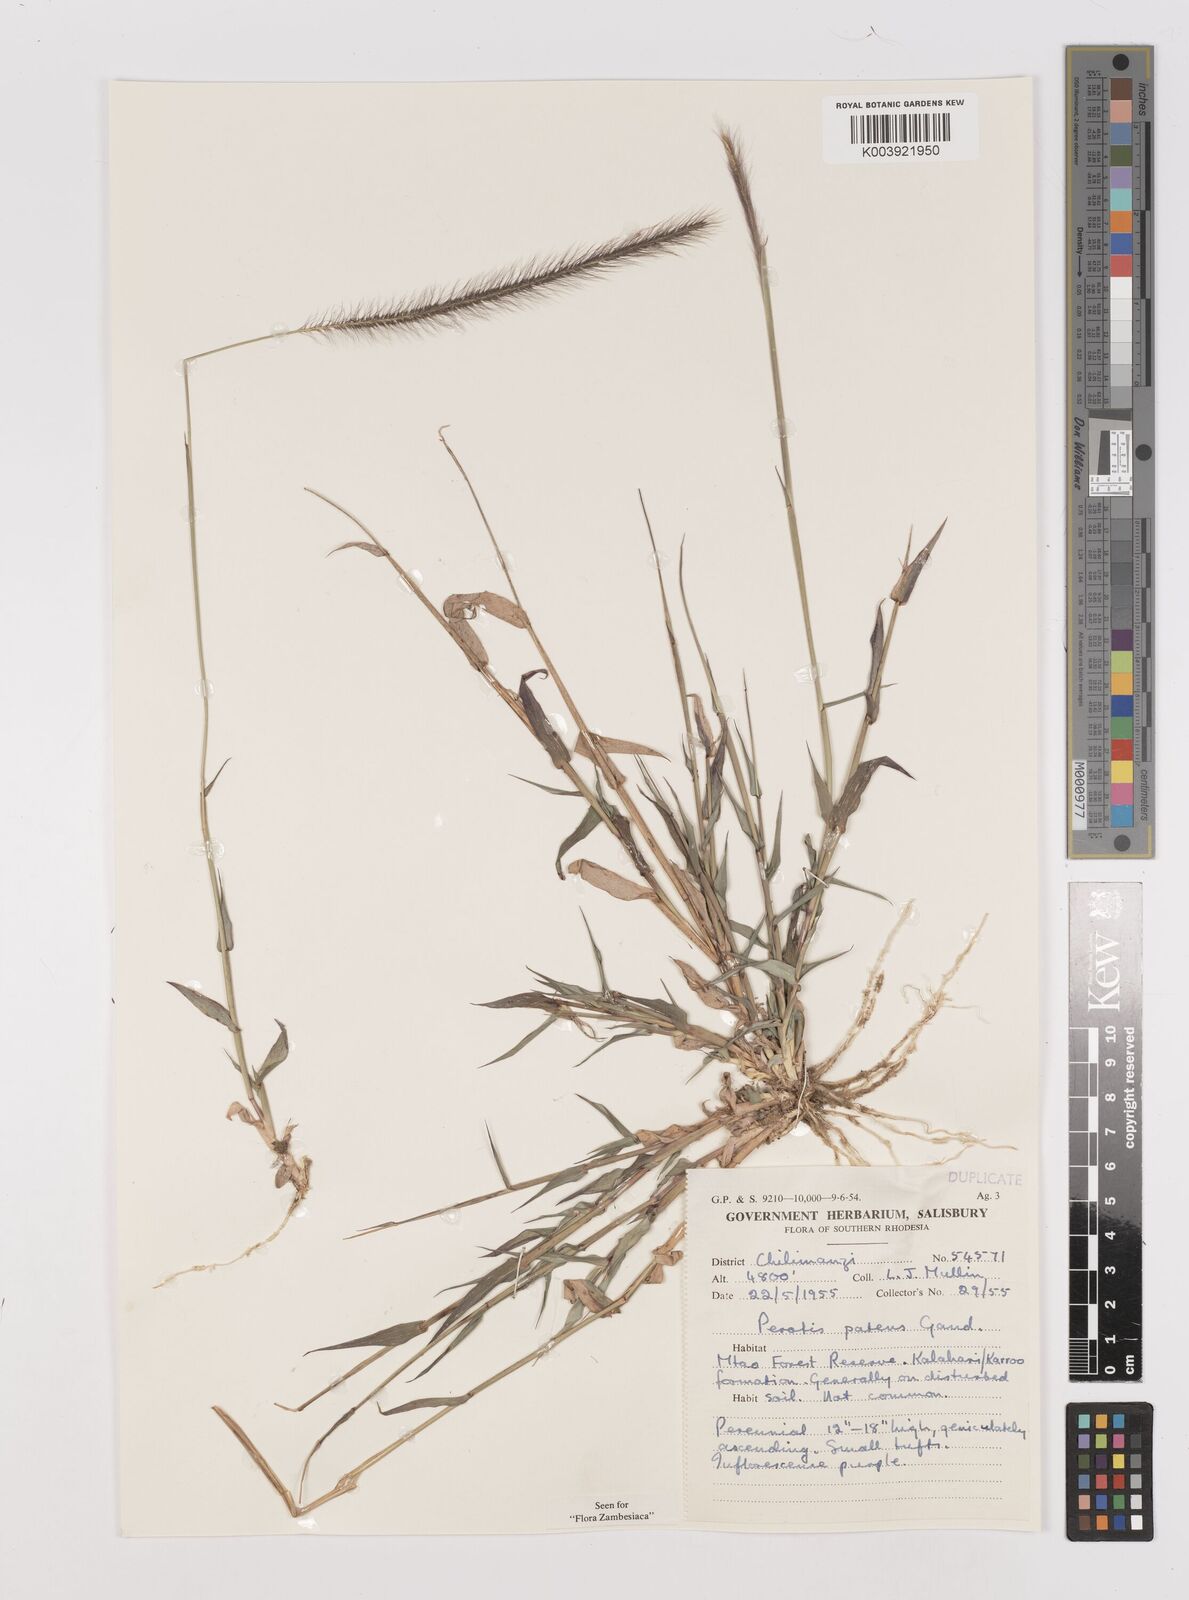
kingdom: Plantae
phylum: Tracheophyta
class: Liliopsida
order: Poales
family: Poaceae
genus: Perotis
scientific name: Perotis patens
